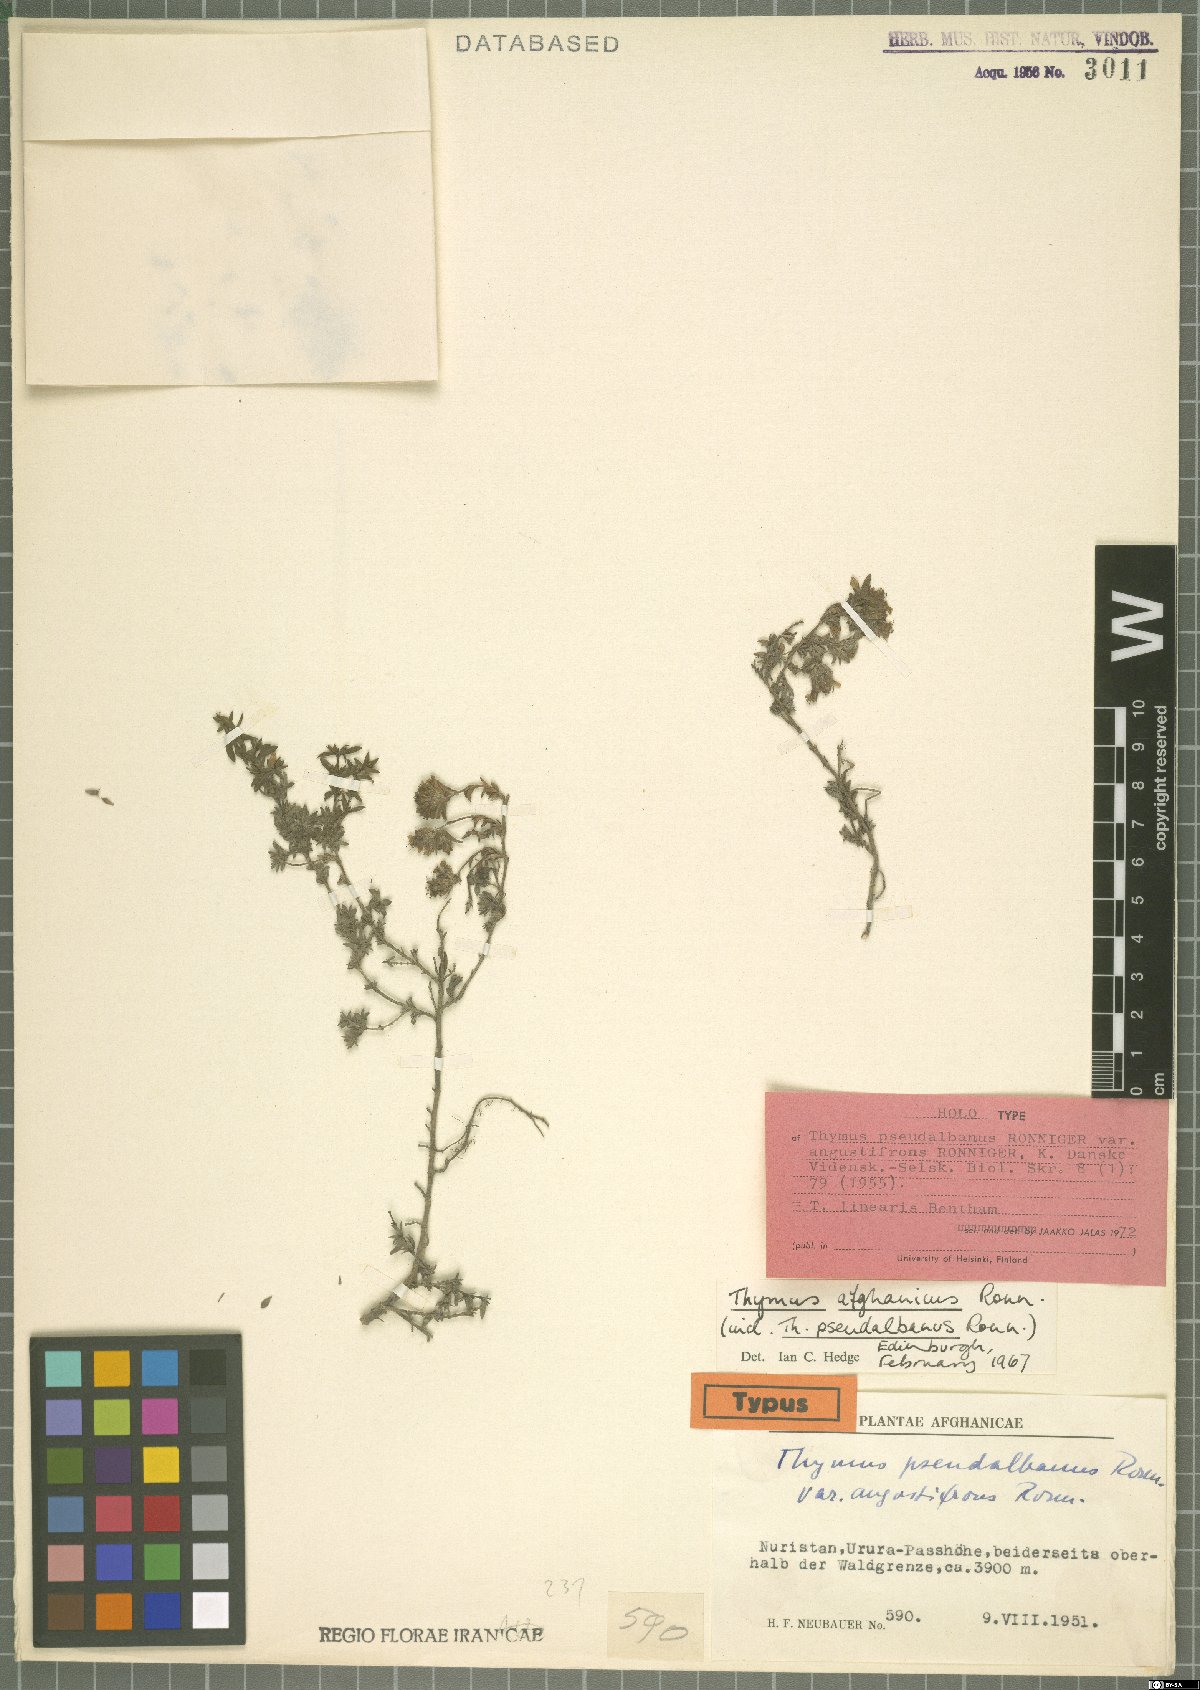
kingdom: Plantae
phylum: Tracheophyta
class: Magnoliopsida
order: Lamiales
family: Lamiaceae
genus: Thymus
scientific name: Thymus linearis
